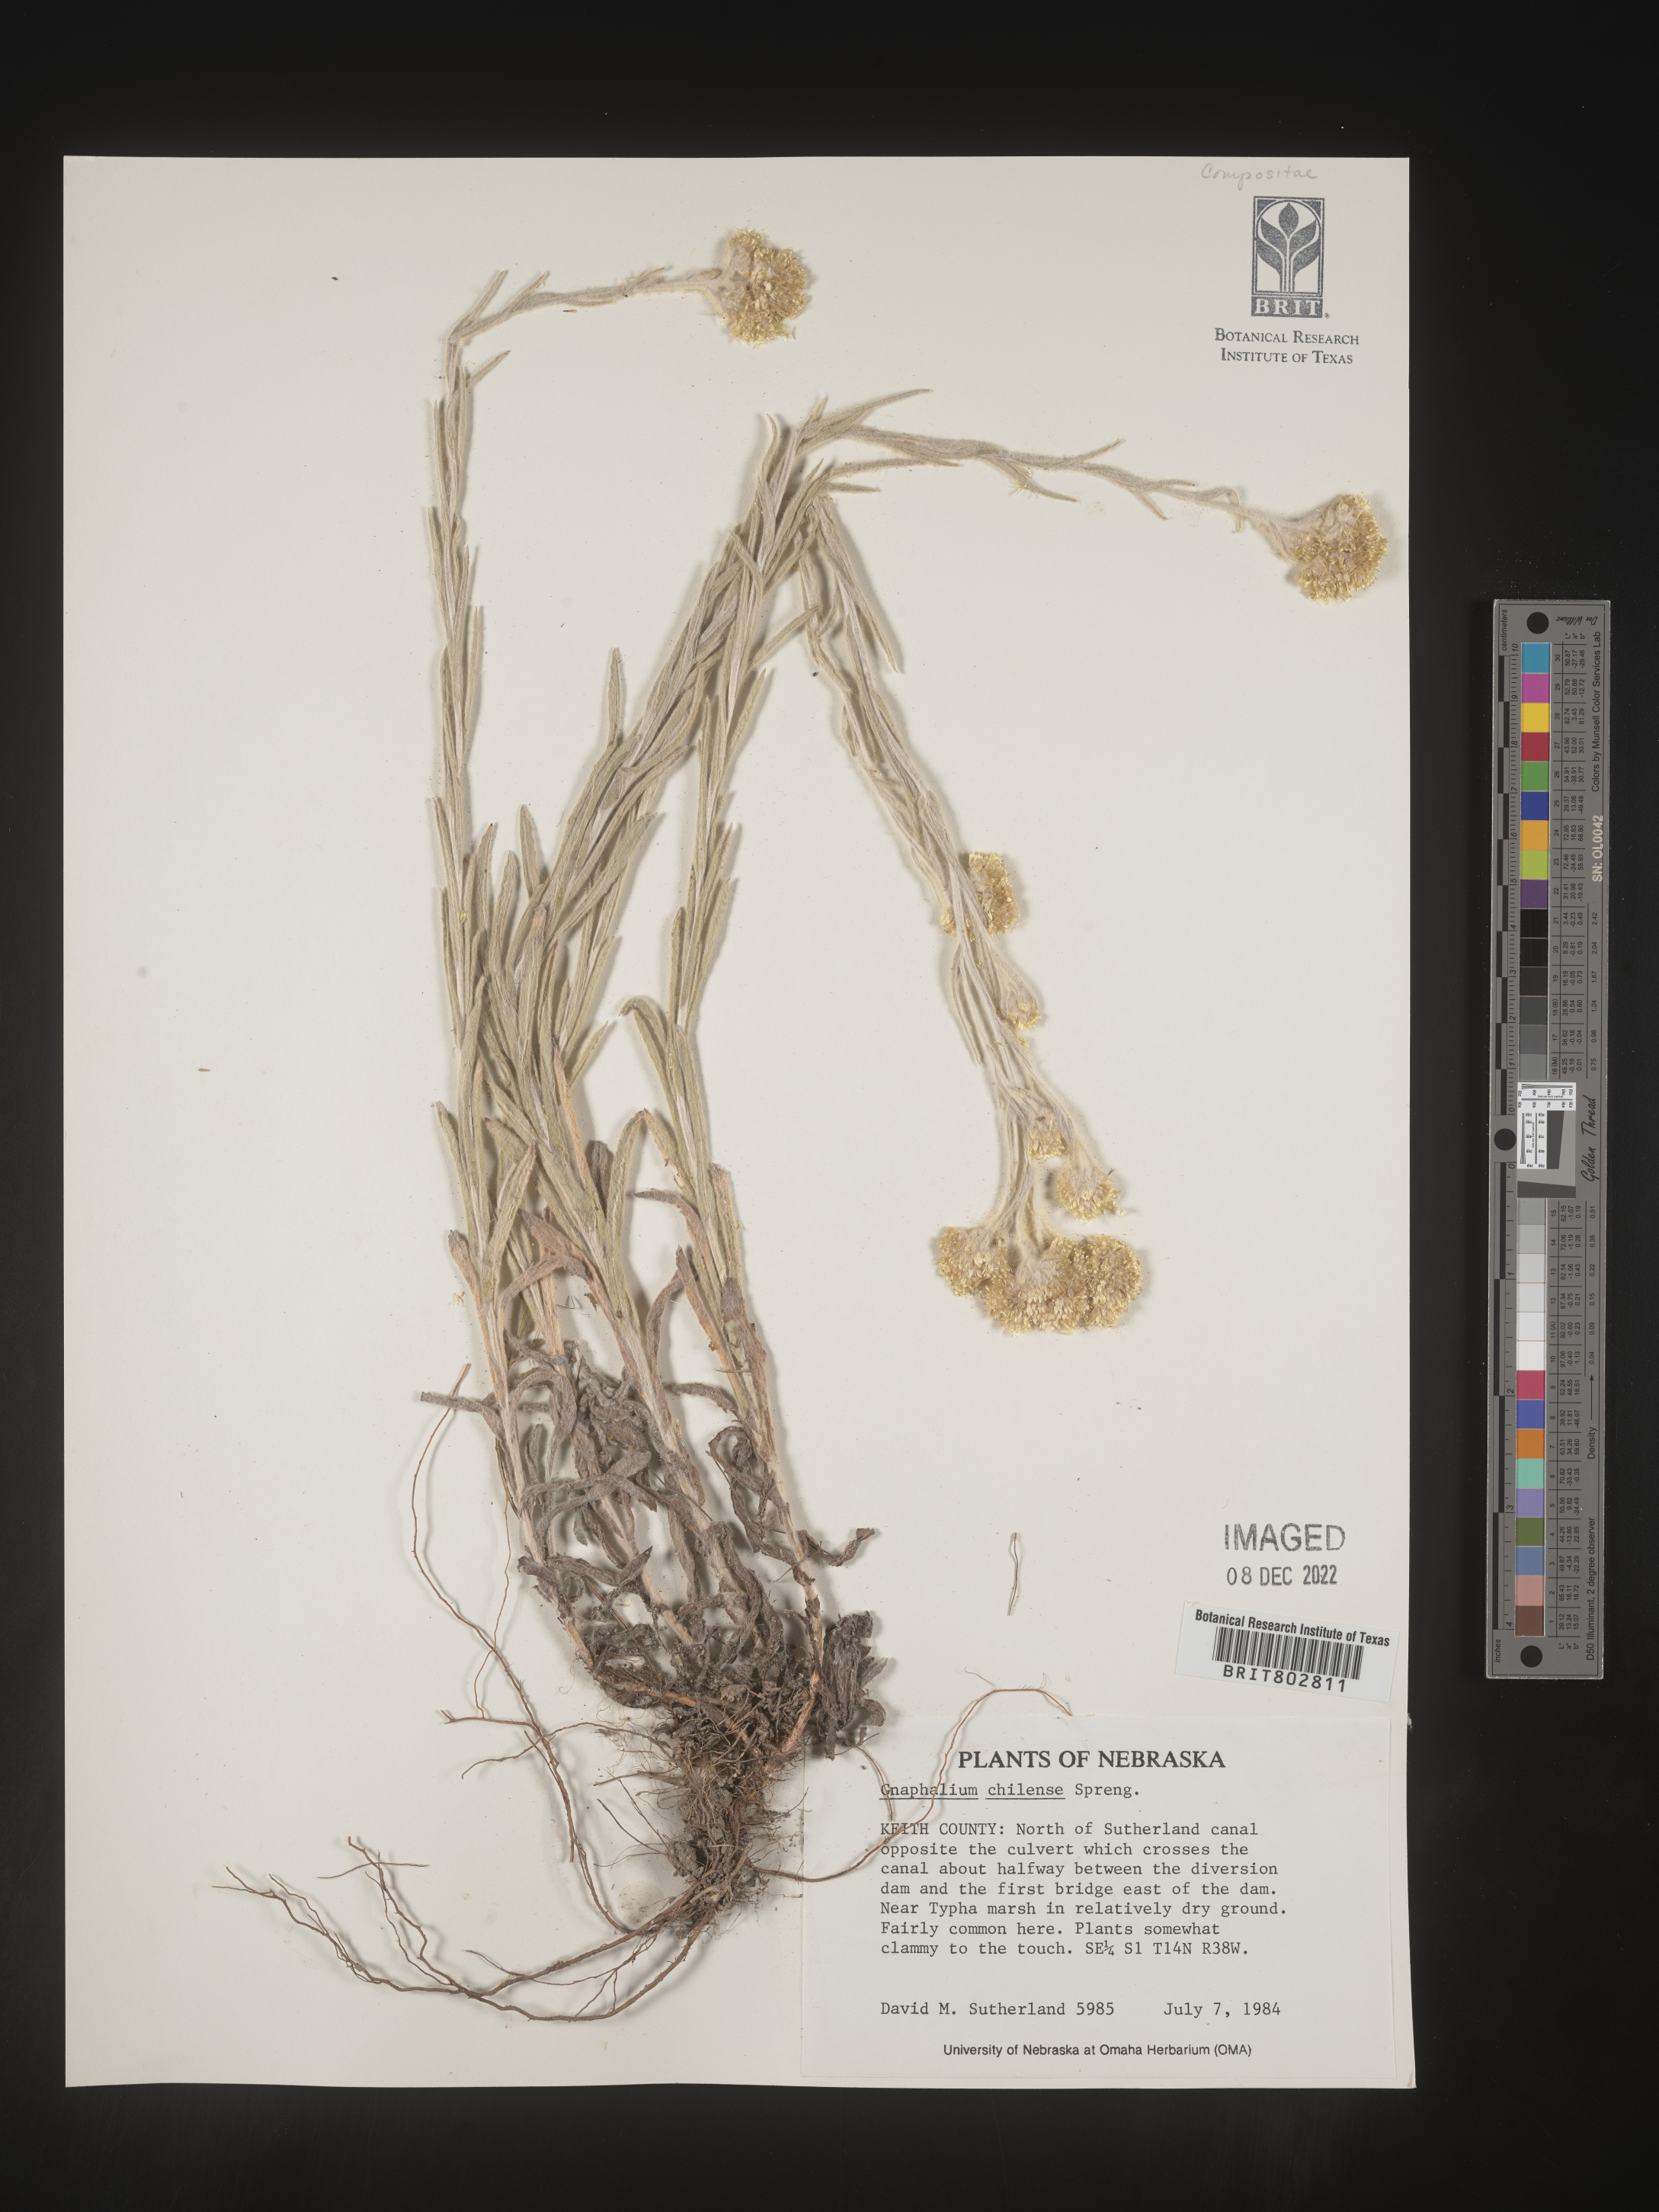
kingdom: Plantae
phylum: Tracheophyta
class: Magnoliopsida
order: Asterales
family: Asteraceae
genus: Pseudognaphalium
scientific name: Pseudognaphalium montevidense
